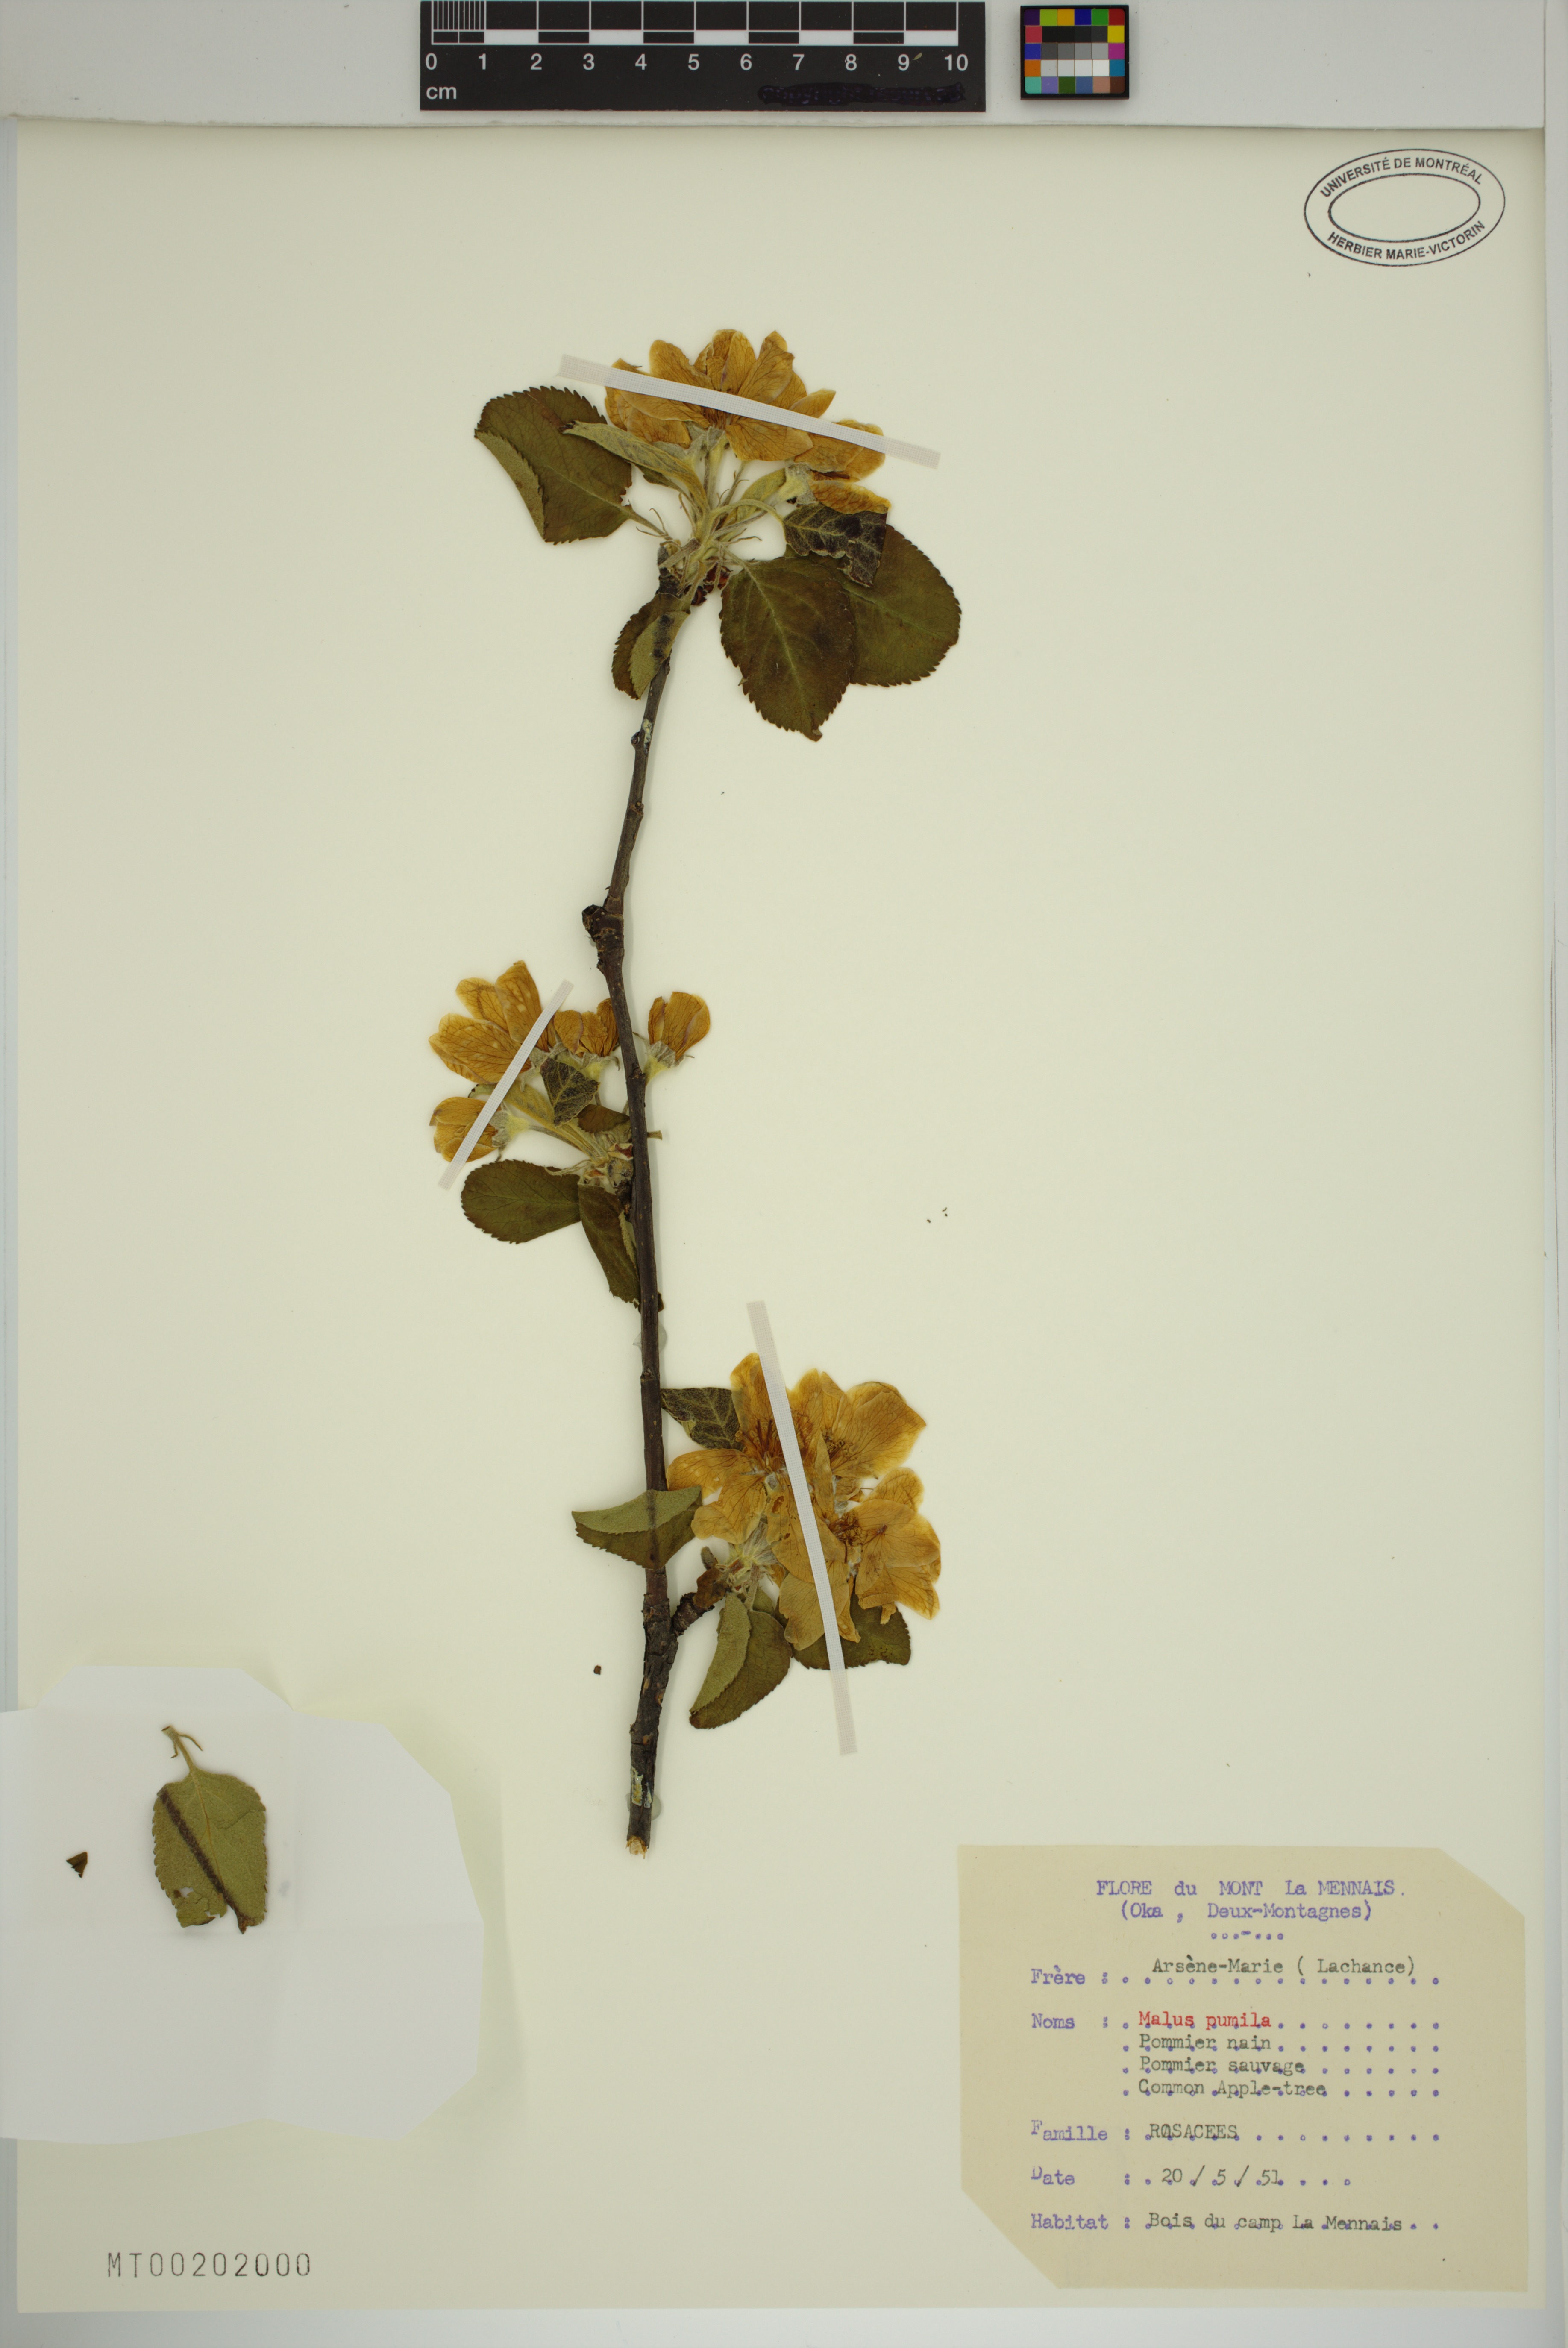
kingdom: Plantae
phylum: Tracheophyta
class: Magnoliopsida
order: Rosales
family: Rosaceae
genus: Malus
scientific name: Malus domestica
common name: Apple
